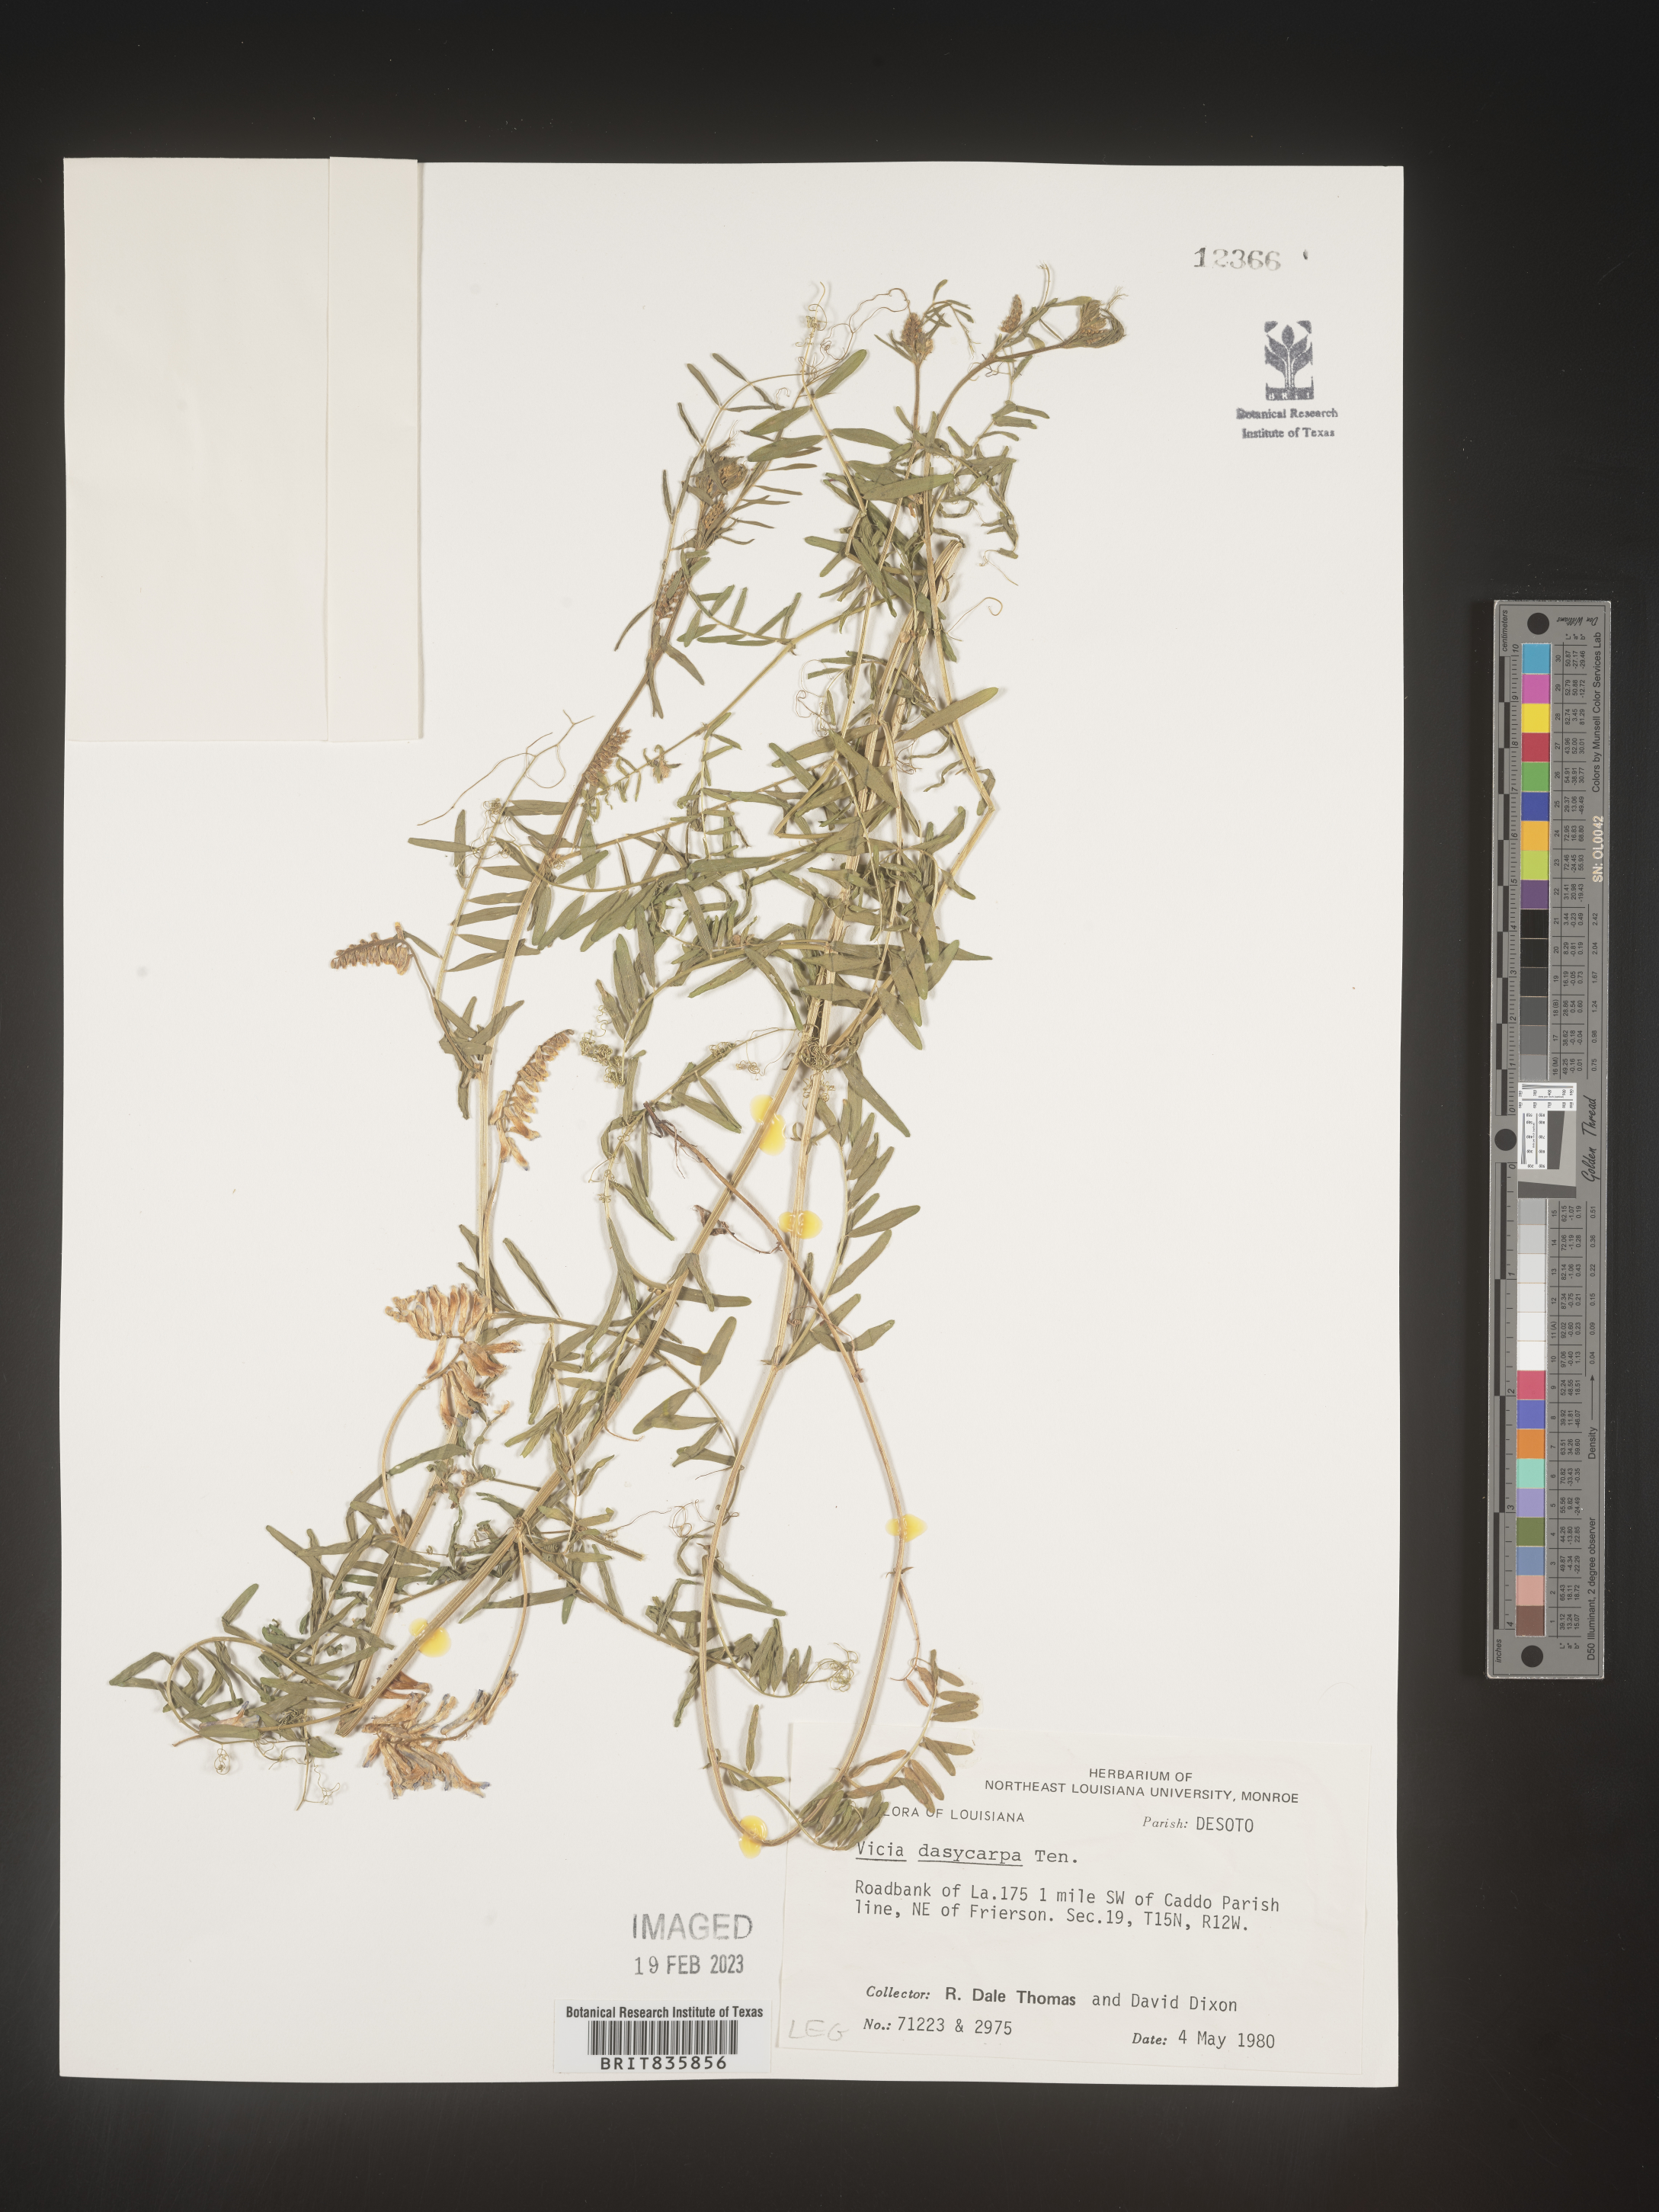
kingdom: Plantae
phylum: Tracheophyta
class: Magnoliopsida
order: Fabales
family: Fabaceae
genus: Vicia
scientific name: Vicia villosa
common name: Fodder vetch
